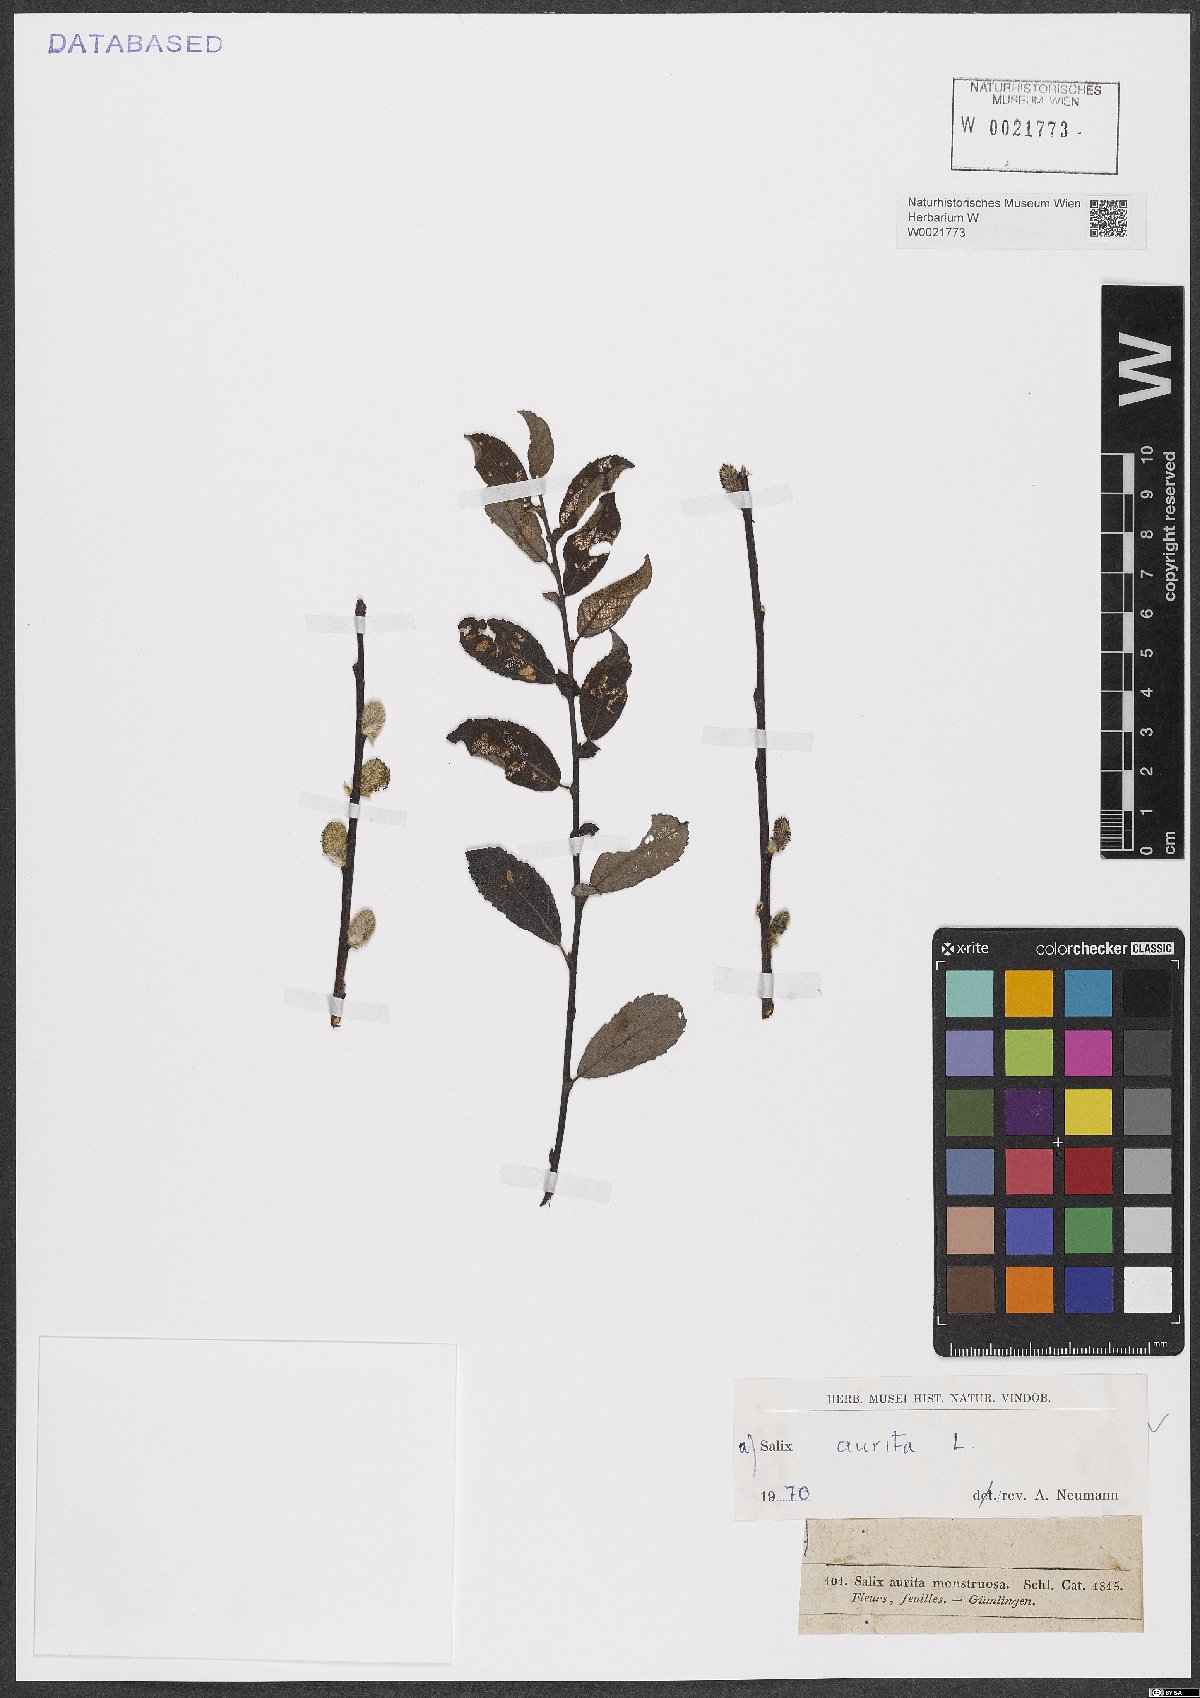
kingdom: Plantae
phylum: Tracheophyta
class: Magnoliopsida
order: Malpighiales
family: Salicaceae
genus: Salix
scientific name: Salix aurita
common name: Eared willow
